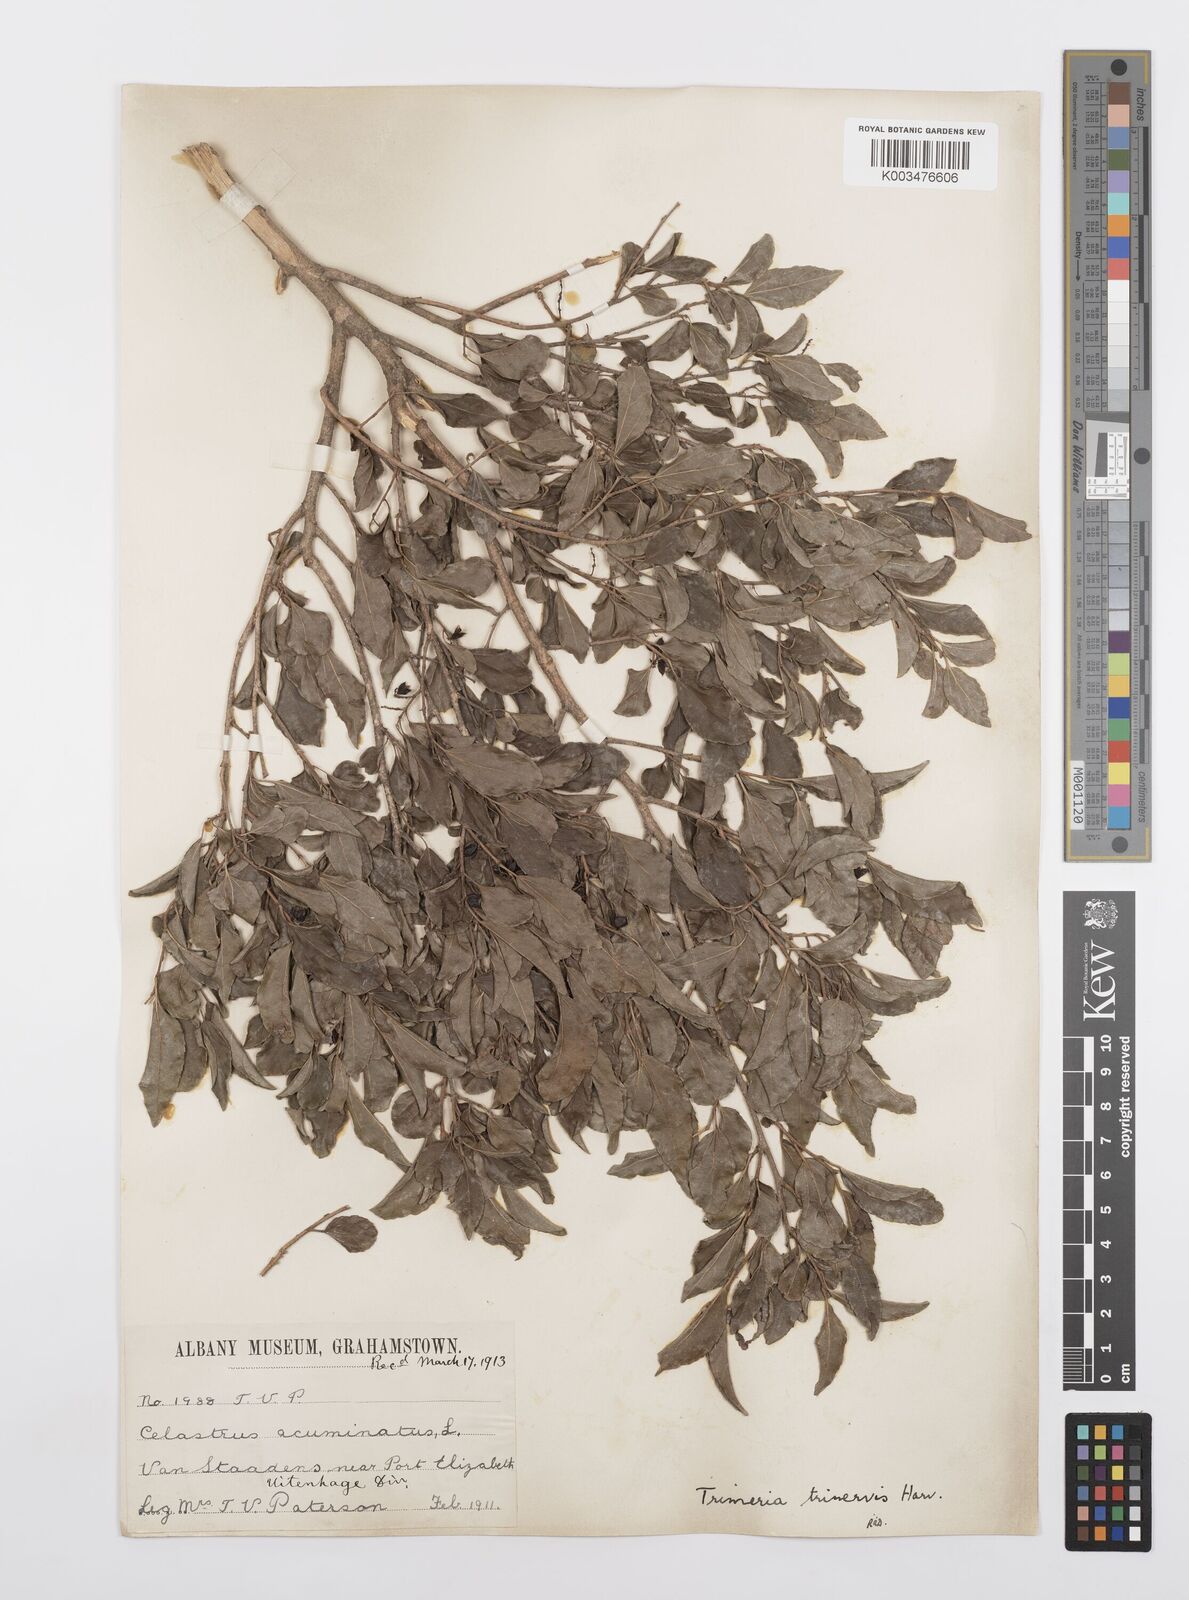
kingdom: Plantae
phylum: Tracheophyta
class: Magnoliopsida
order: Malpighiales
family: Salicaceae
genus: Trimeria
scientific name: Trimeria trinervis
